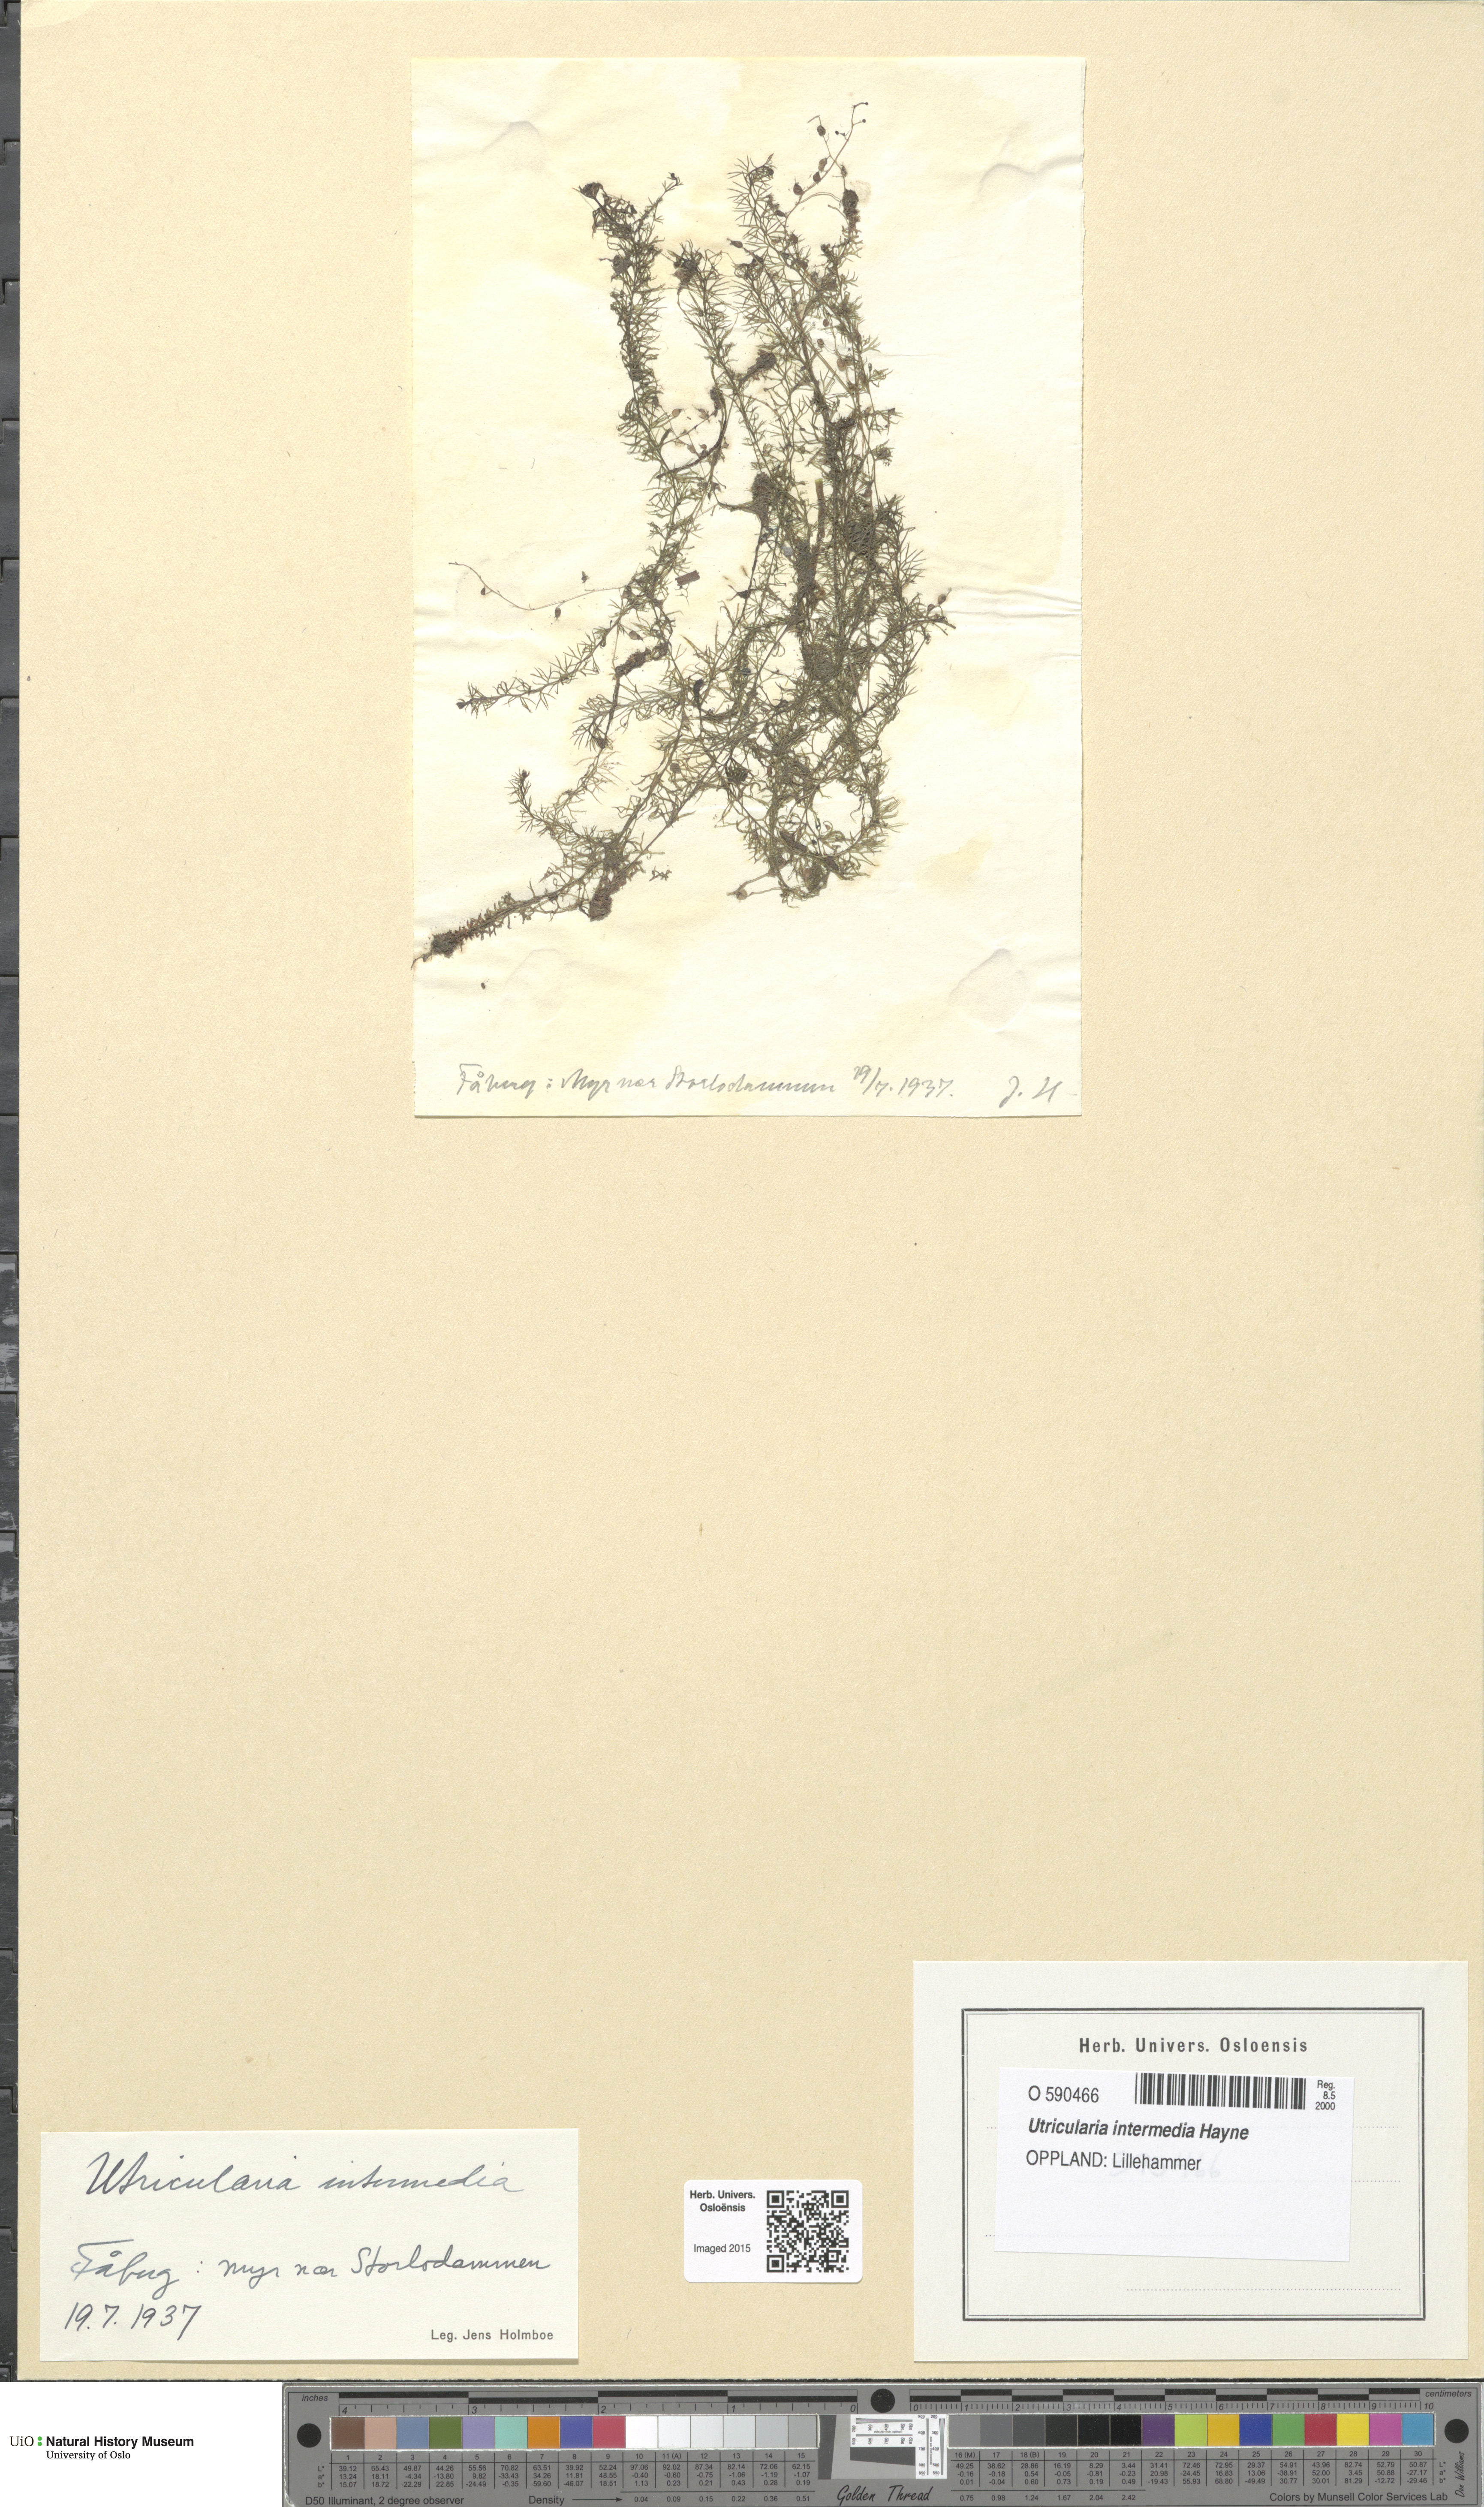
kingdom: Plantae
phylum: Tracheophyta
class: Magnoliopsida
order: Lamiales
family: Lentibulariaceae
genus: Utricularia
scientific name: Utricularia intermedia
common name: Intermediate bladderwort
